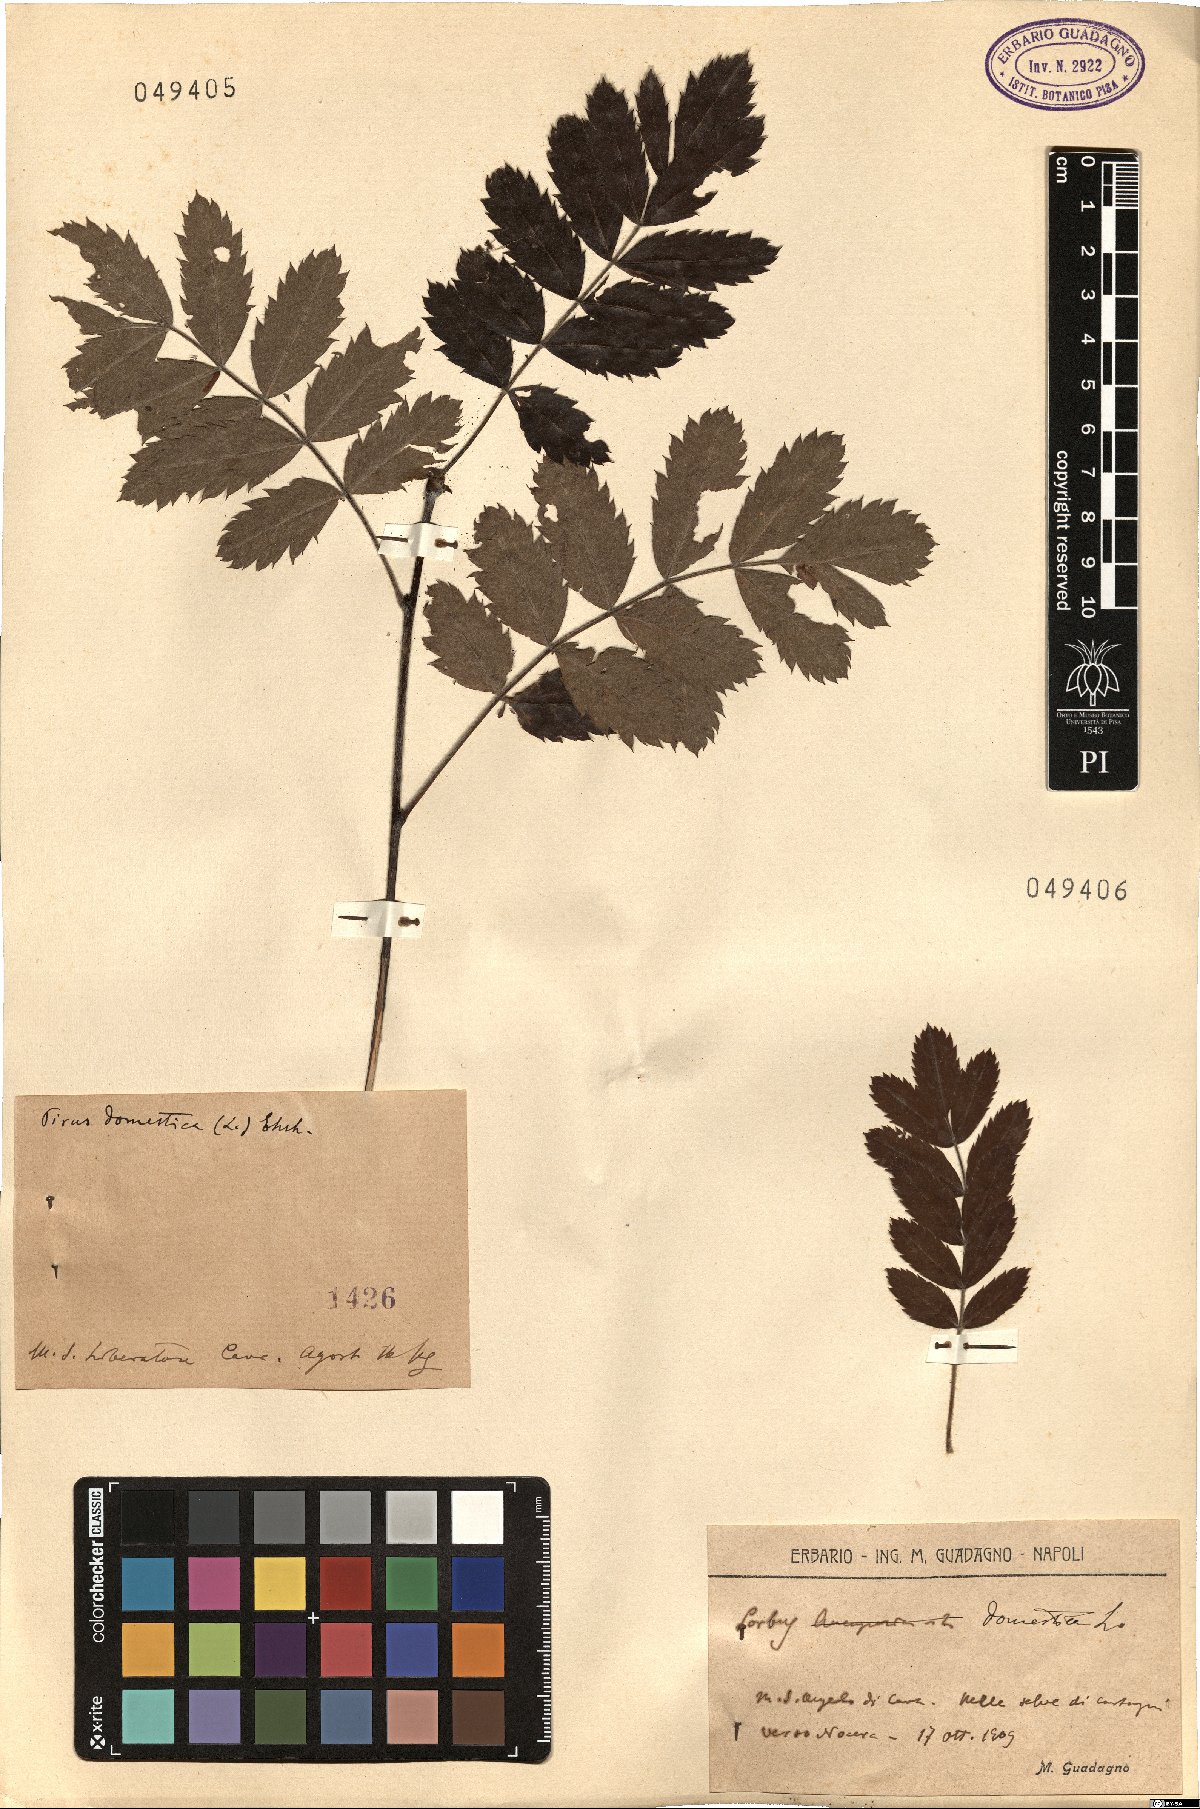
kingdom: Plantae
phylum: Tracheophyta
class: Magnoliopsida
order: Rosales
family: Rosaceae
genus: Cormus
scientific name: Cormus domestica
